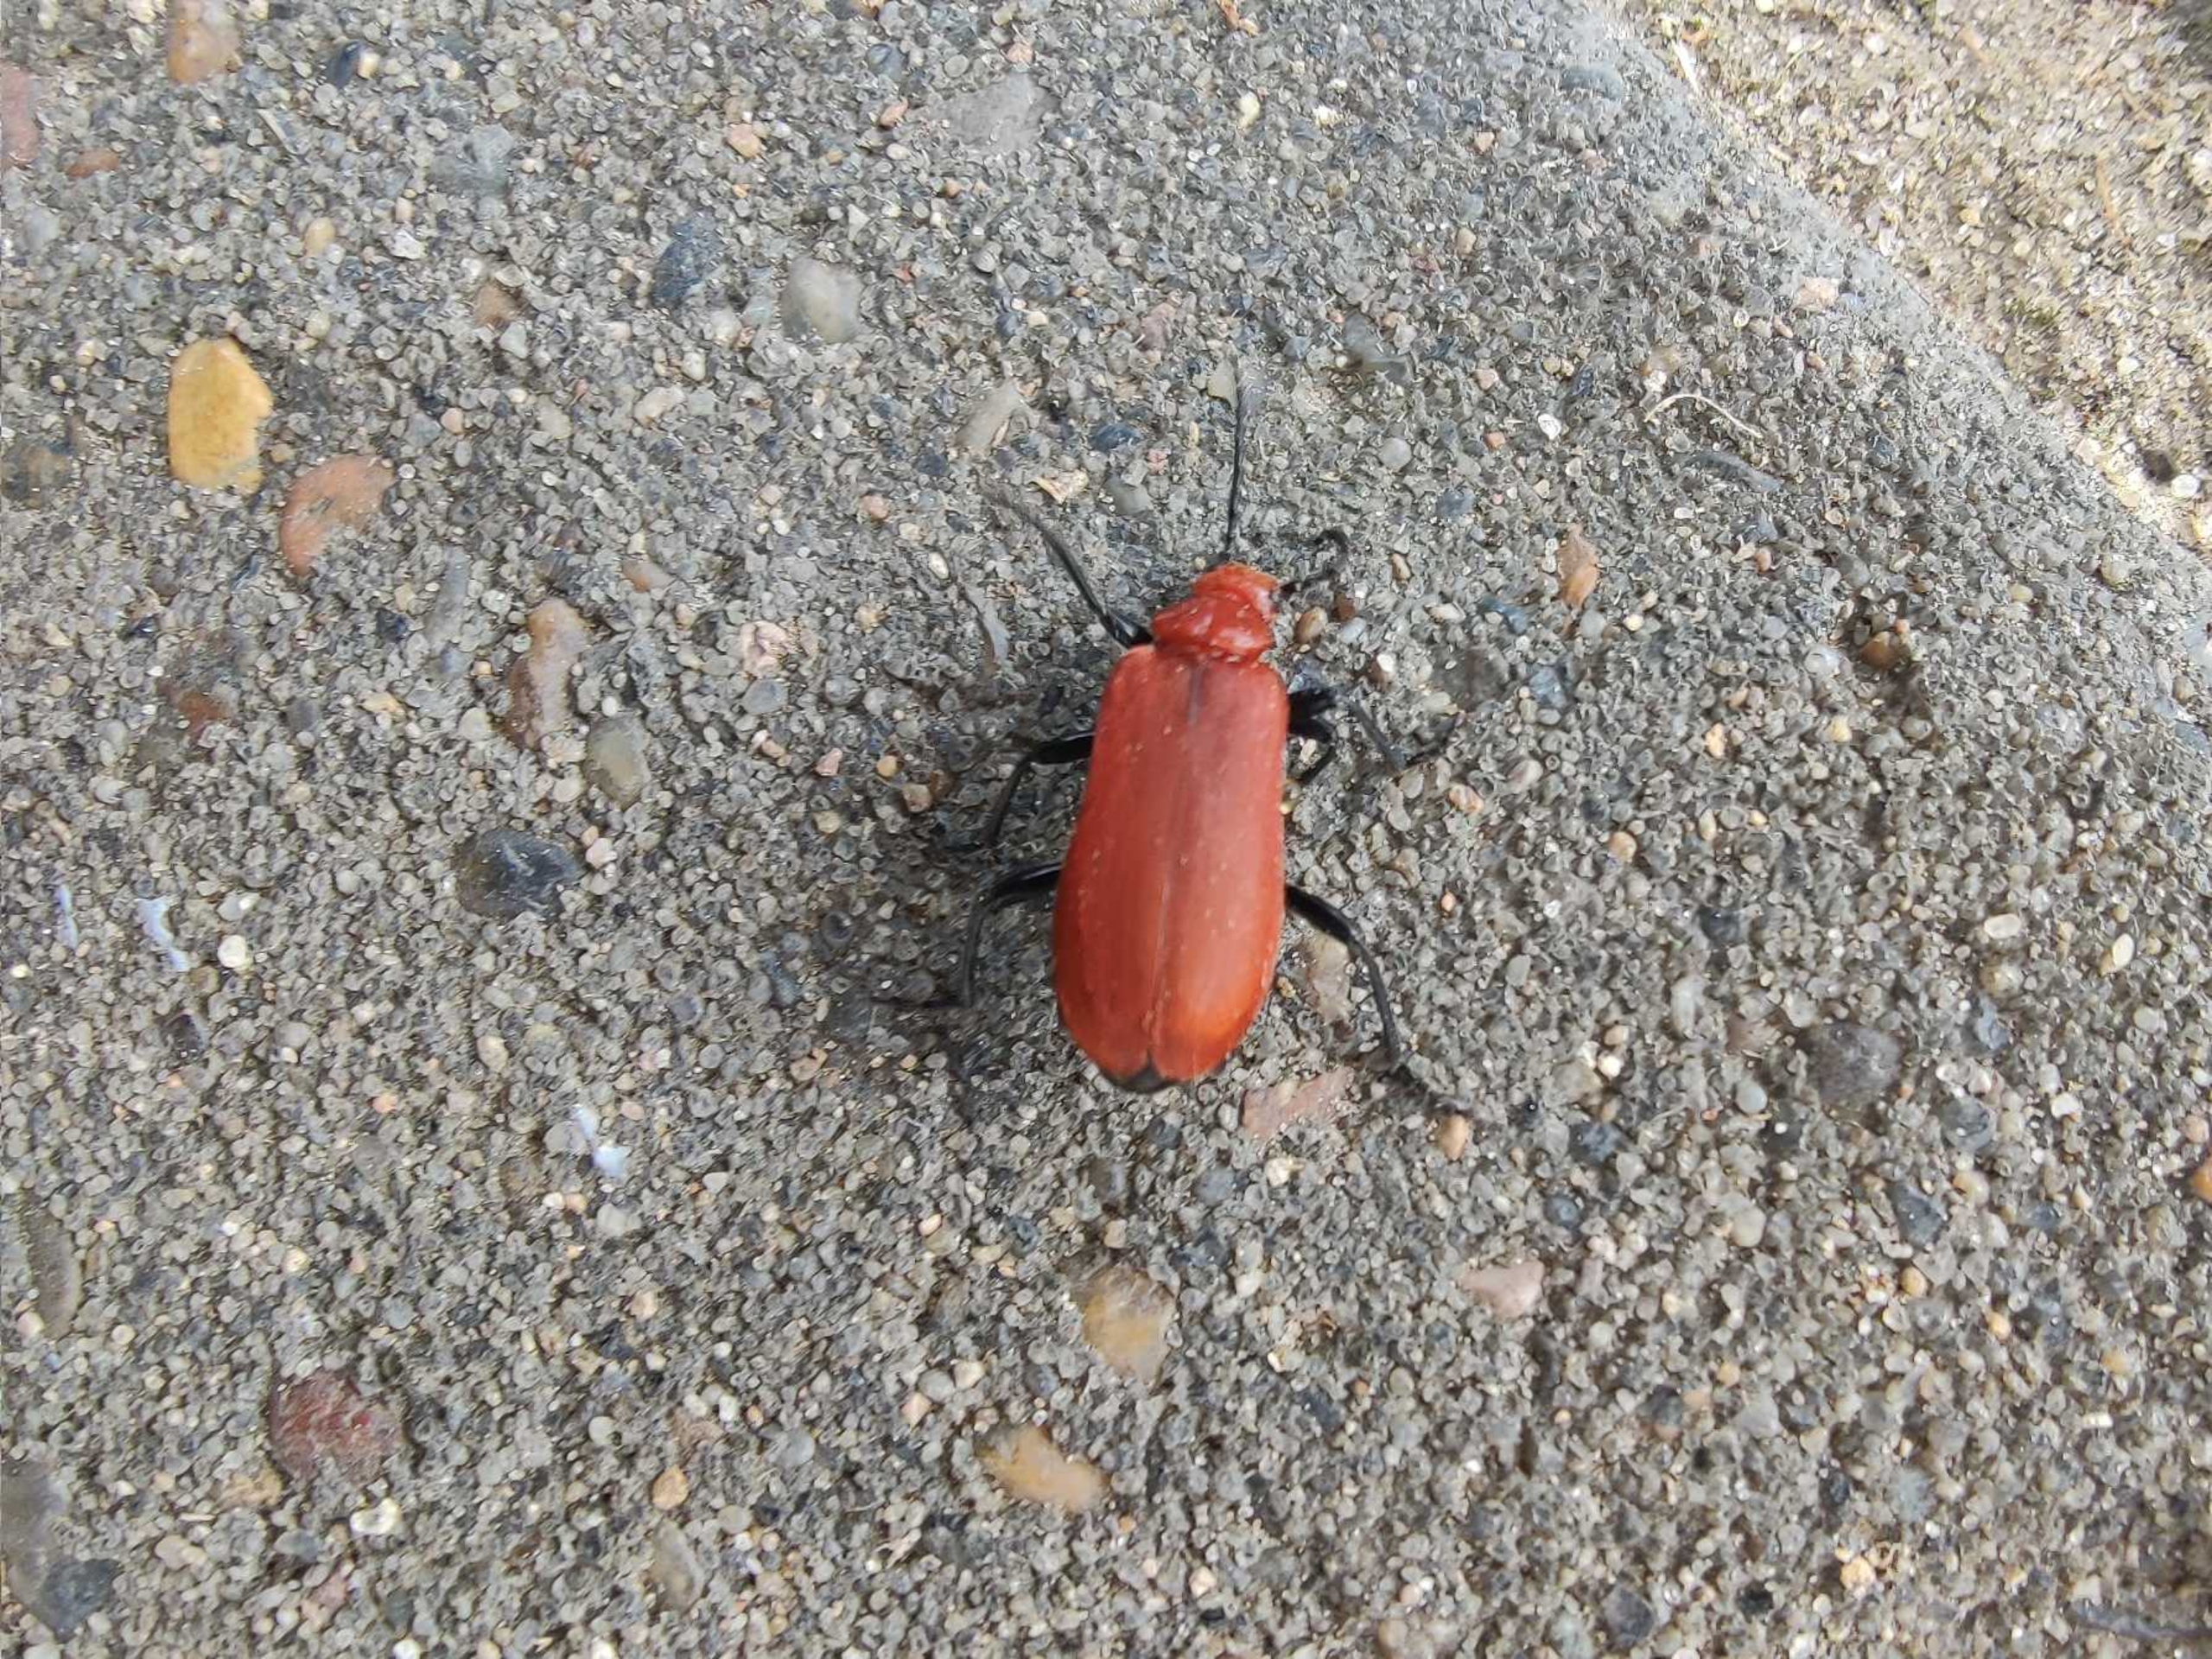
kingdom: Animalia
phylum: Arthropoda
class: Insecta
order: Coleoptera
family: Pyrochroidae
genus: Pyrochroa
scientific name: Pyrochroa serraticornis
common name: Rødhovedet kardinalbille
